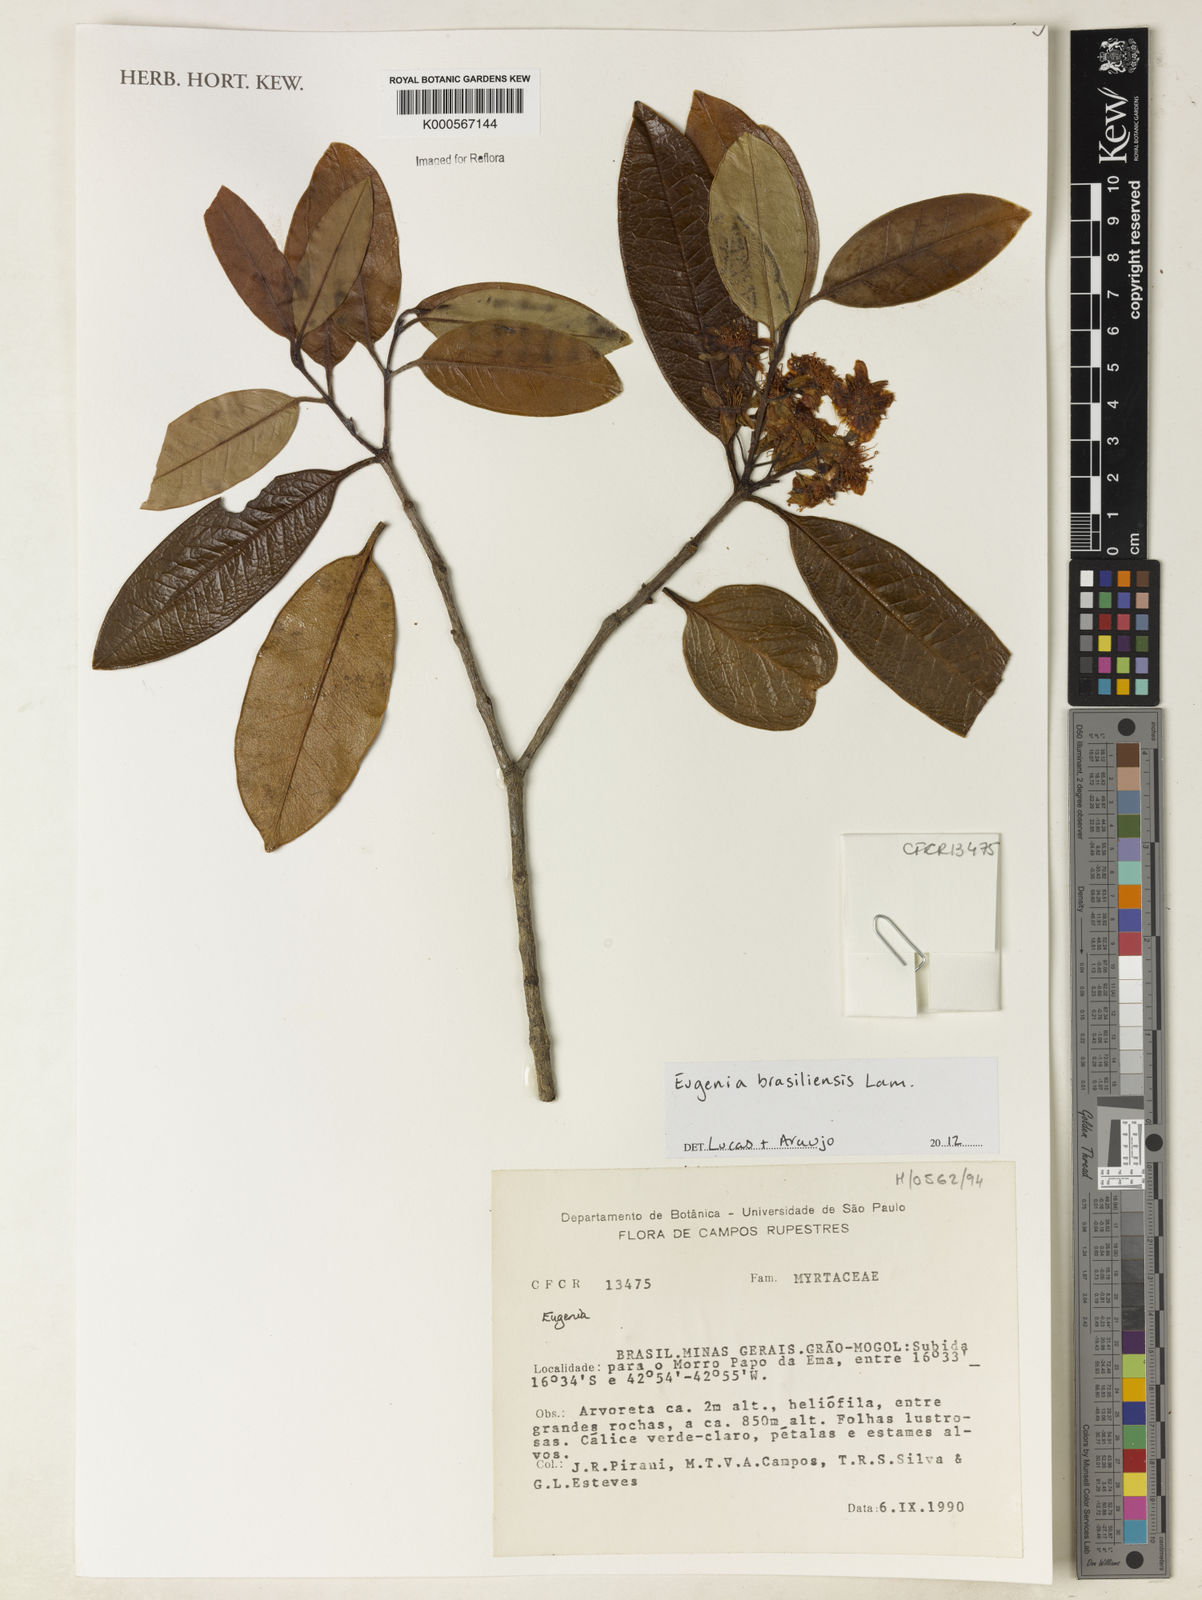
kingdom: Plantae
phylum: Tracheophyta
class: Magnoliopsida
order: Myrtales
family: Myrtaceae
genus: Eugenia
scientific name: Eugenia brasiliensis
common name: Grumichama
